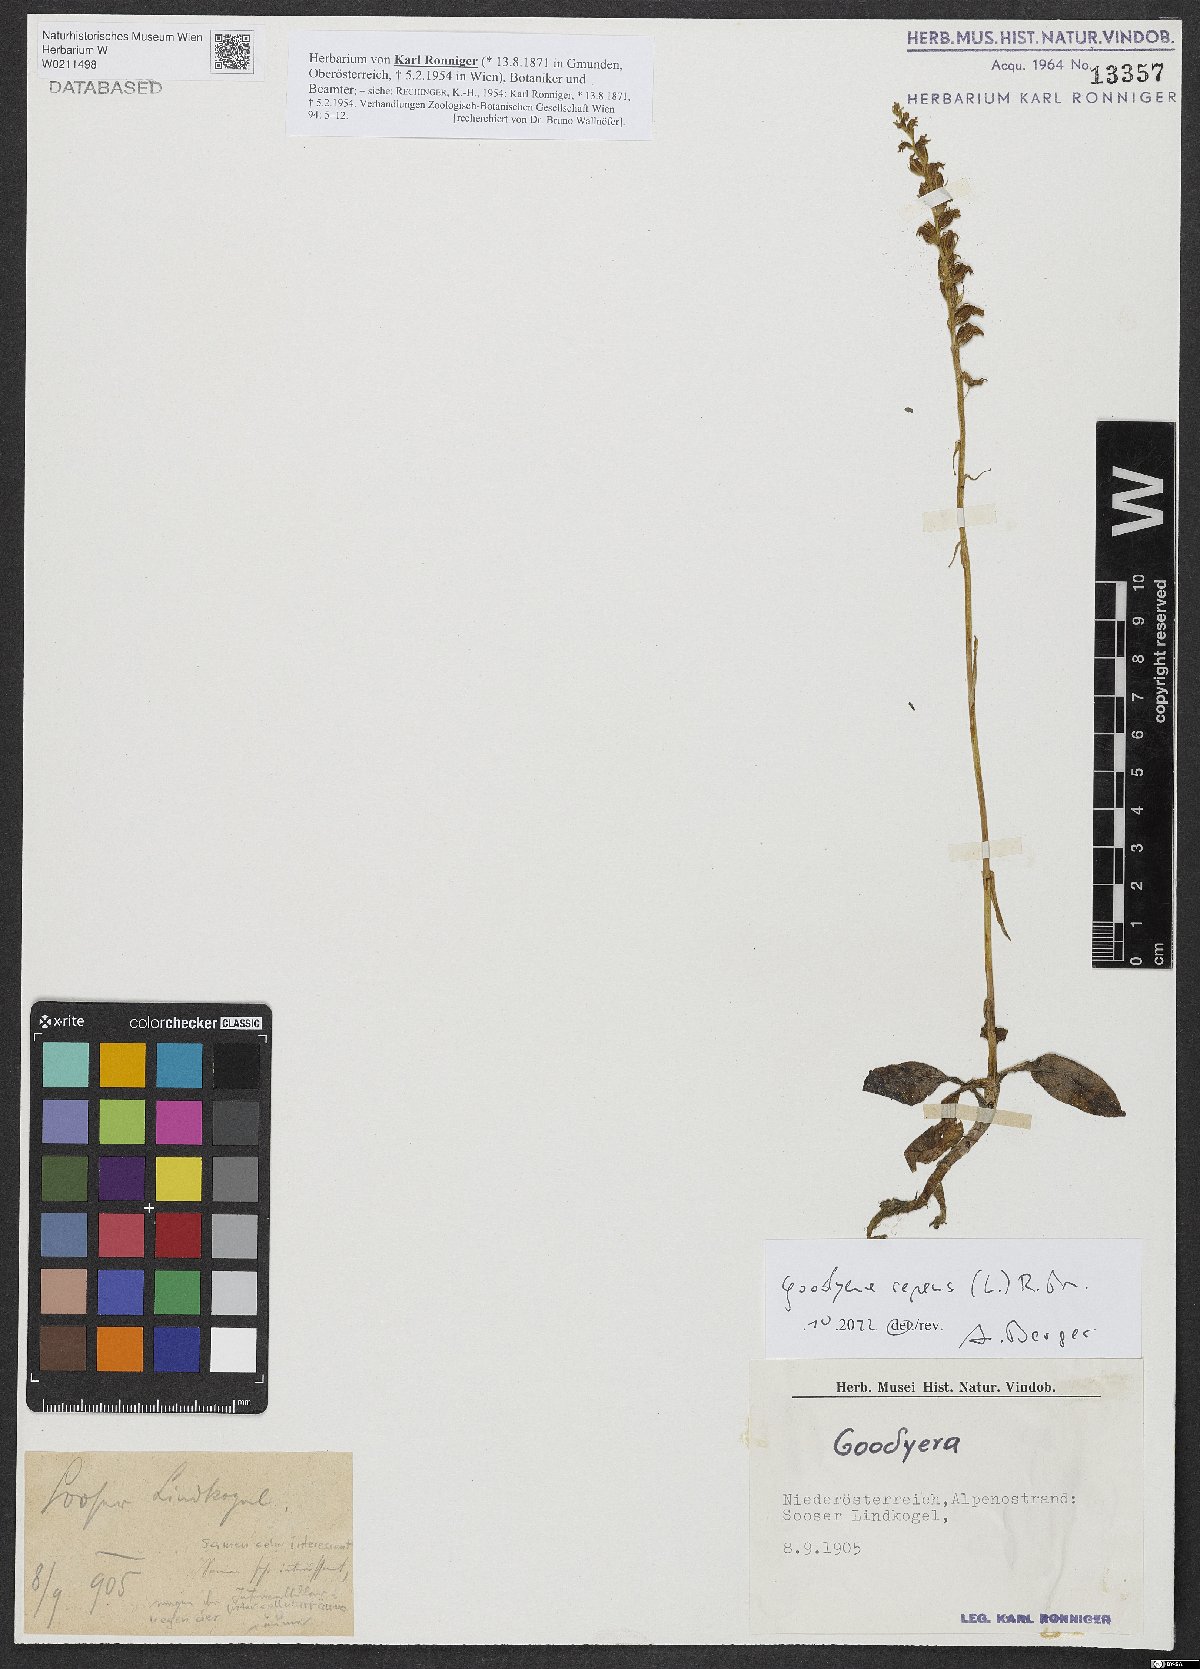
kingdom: Plantae
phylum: Tracheophyta
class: Liliopsida
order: Asparagales
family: Orchidaceae
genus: Goodyera
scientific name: Goodyera repens
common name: Creeping lady's-tresses
